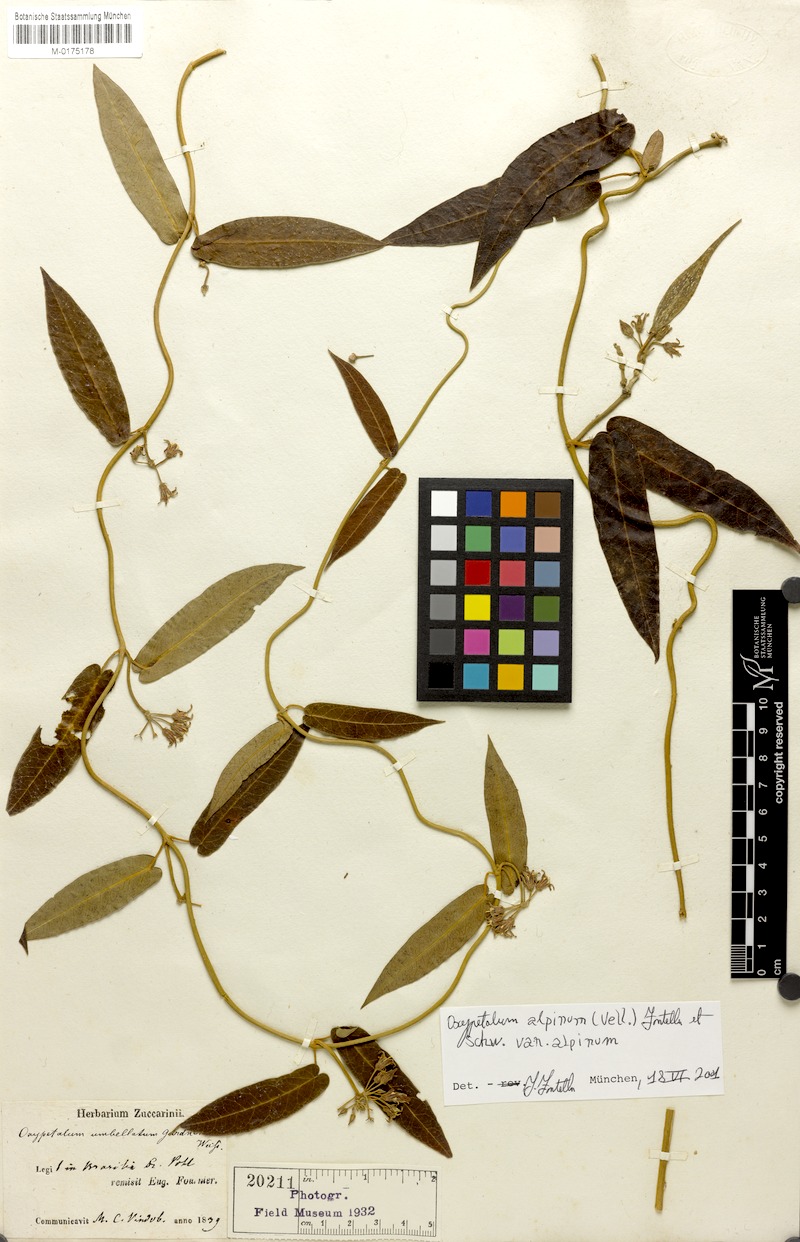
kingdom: Plantae
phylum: Tracheophyta
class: Magnoliopsida
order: Gentianales
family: Apocynaceae
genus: Oxypetalum
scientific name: Oxypetalum alpinum
